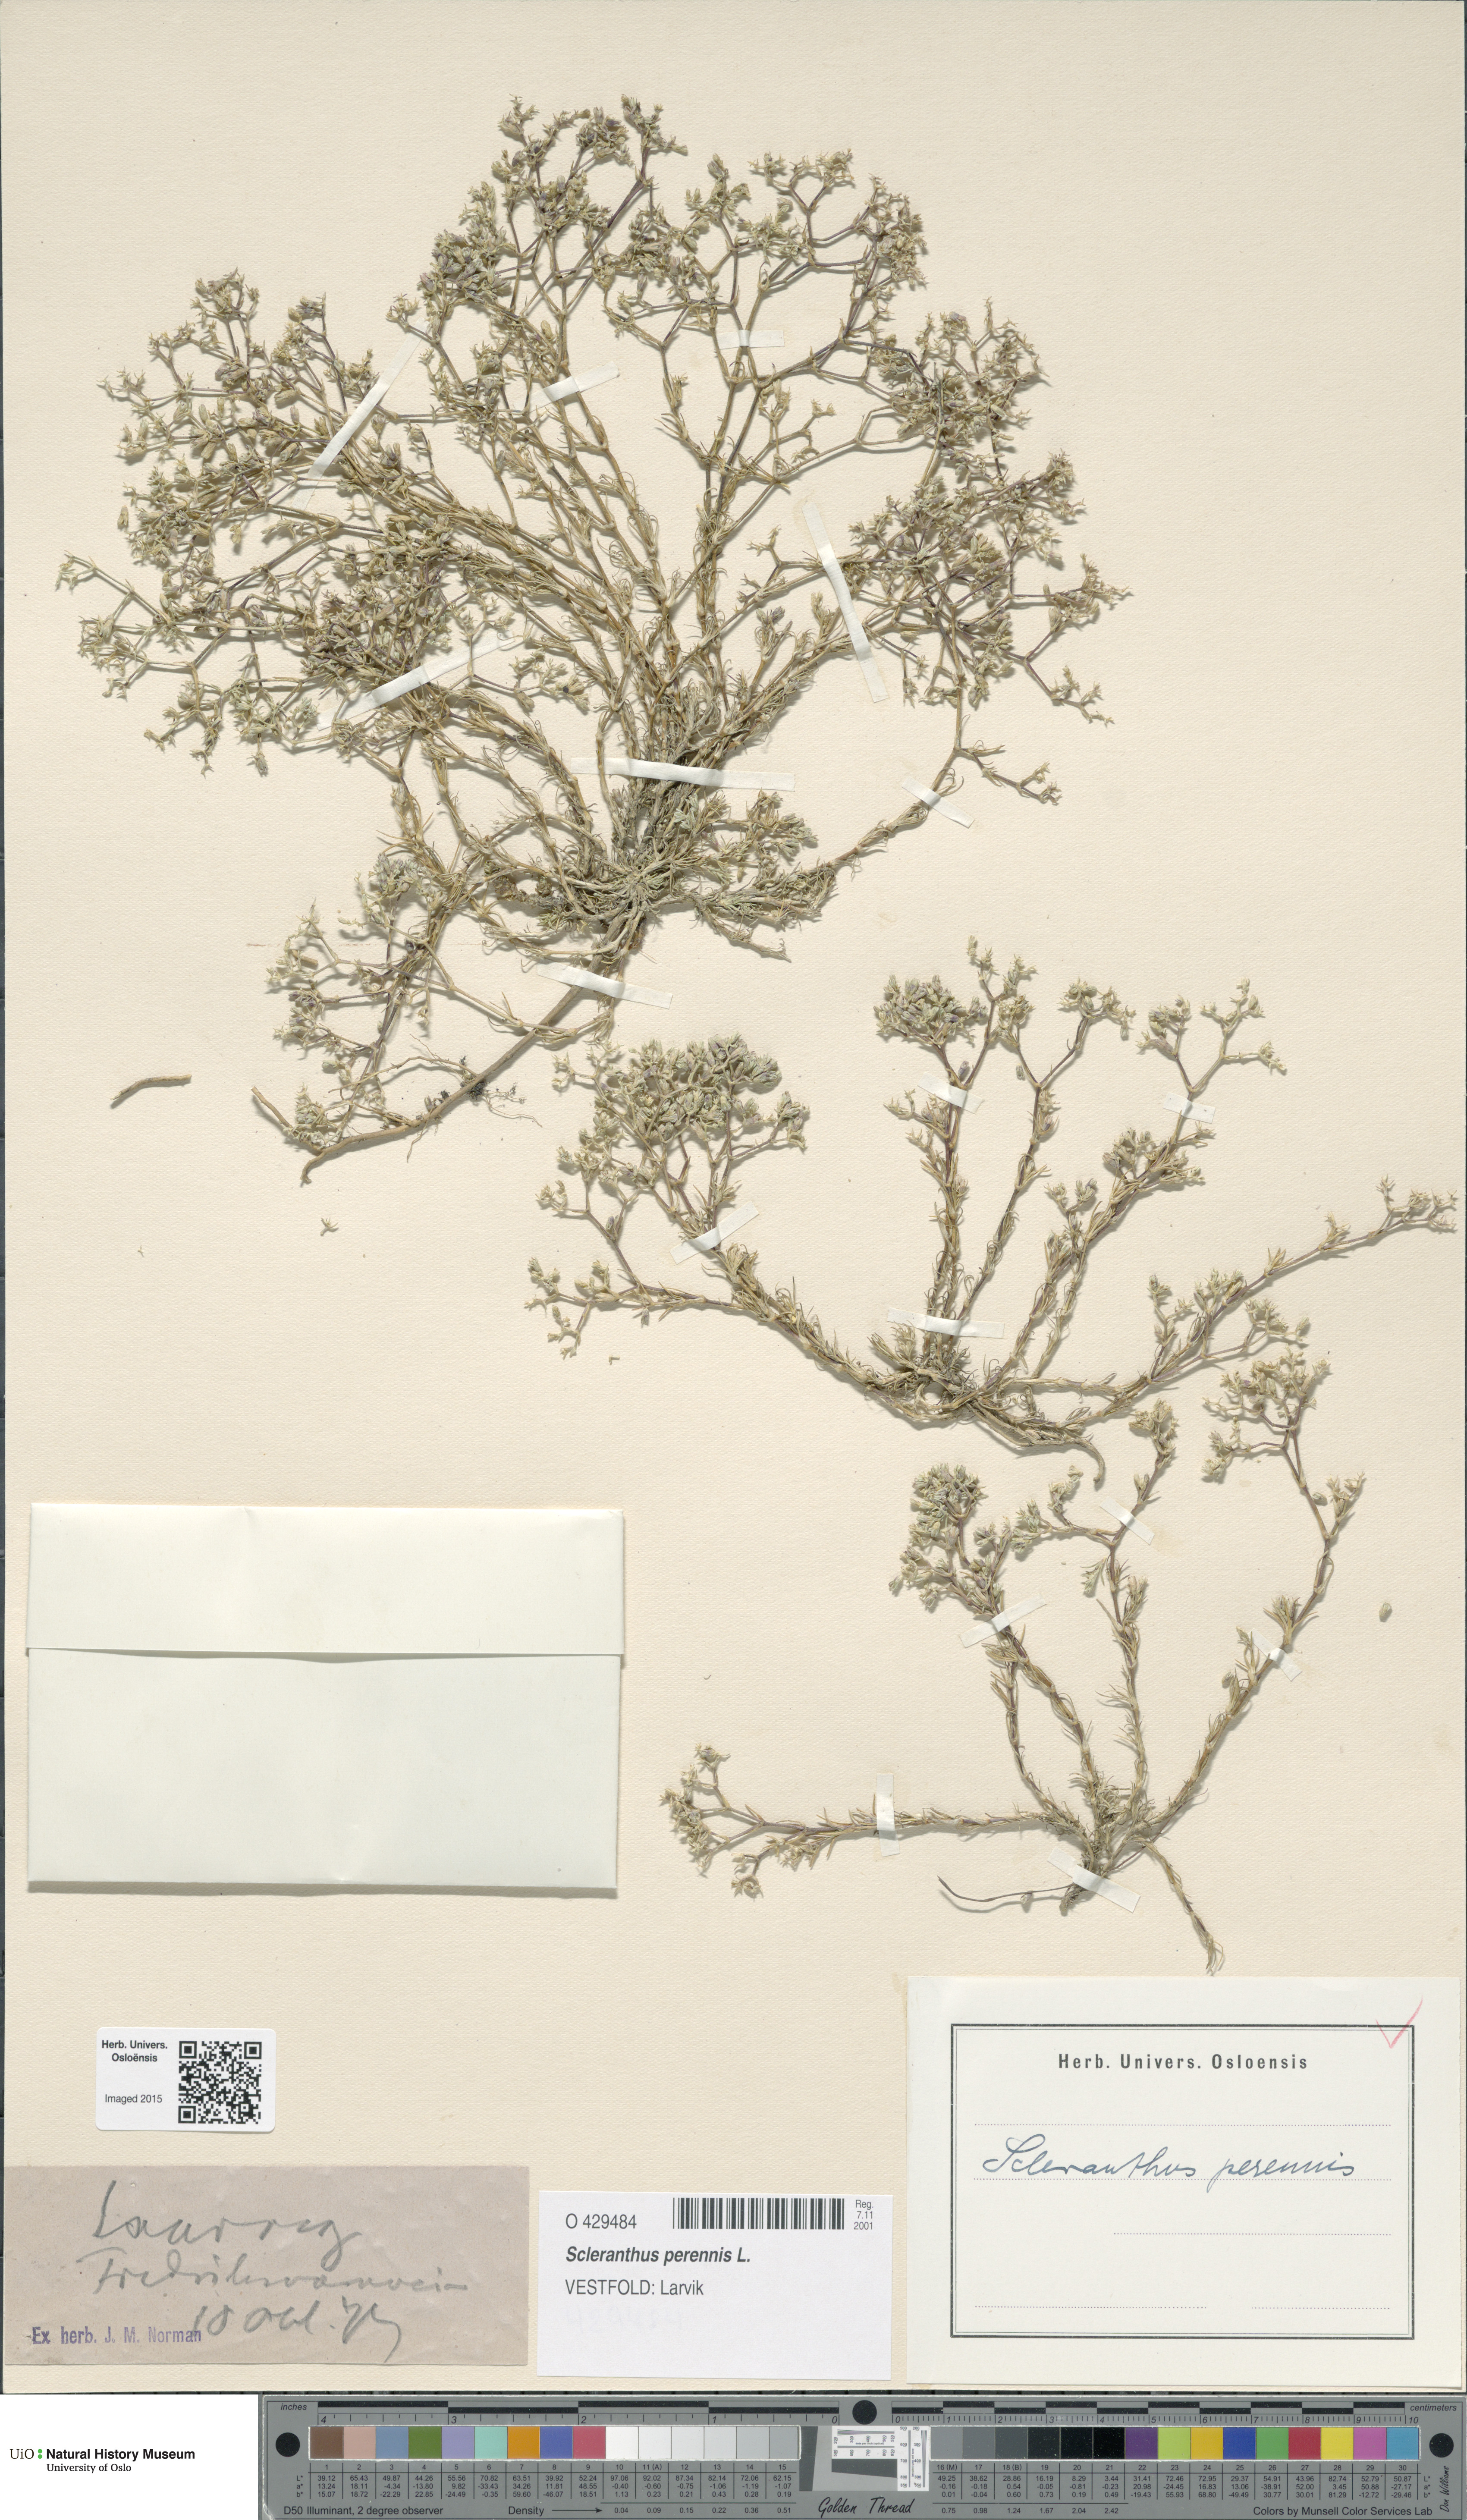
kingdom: Plantae
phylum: Tracheophyta
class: Magnoliopsida
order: Caryophyllales
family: Caryophyllaceae
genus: Scleranthus
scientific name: Scleranthus perennis
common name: Perennial knawel
